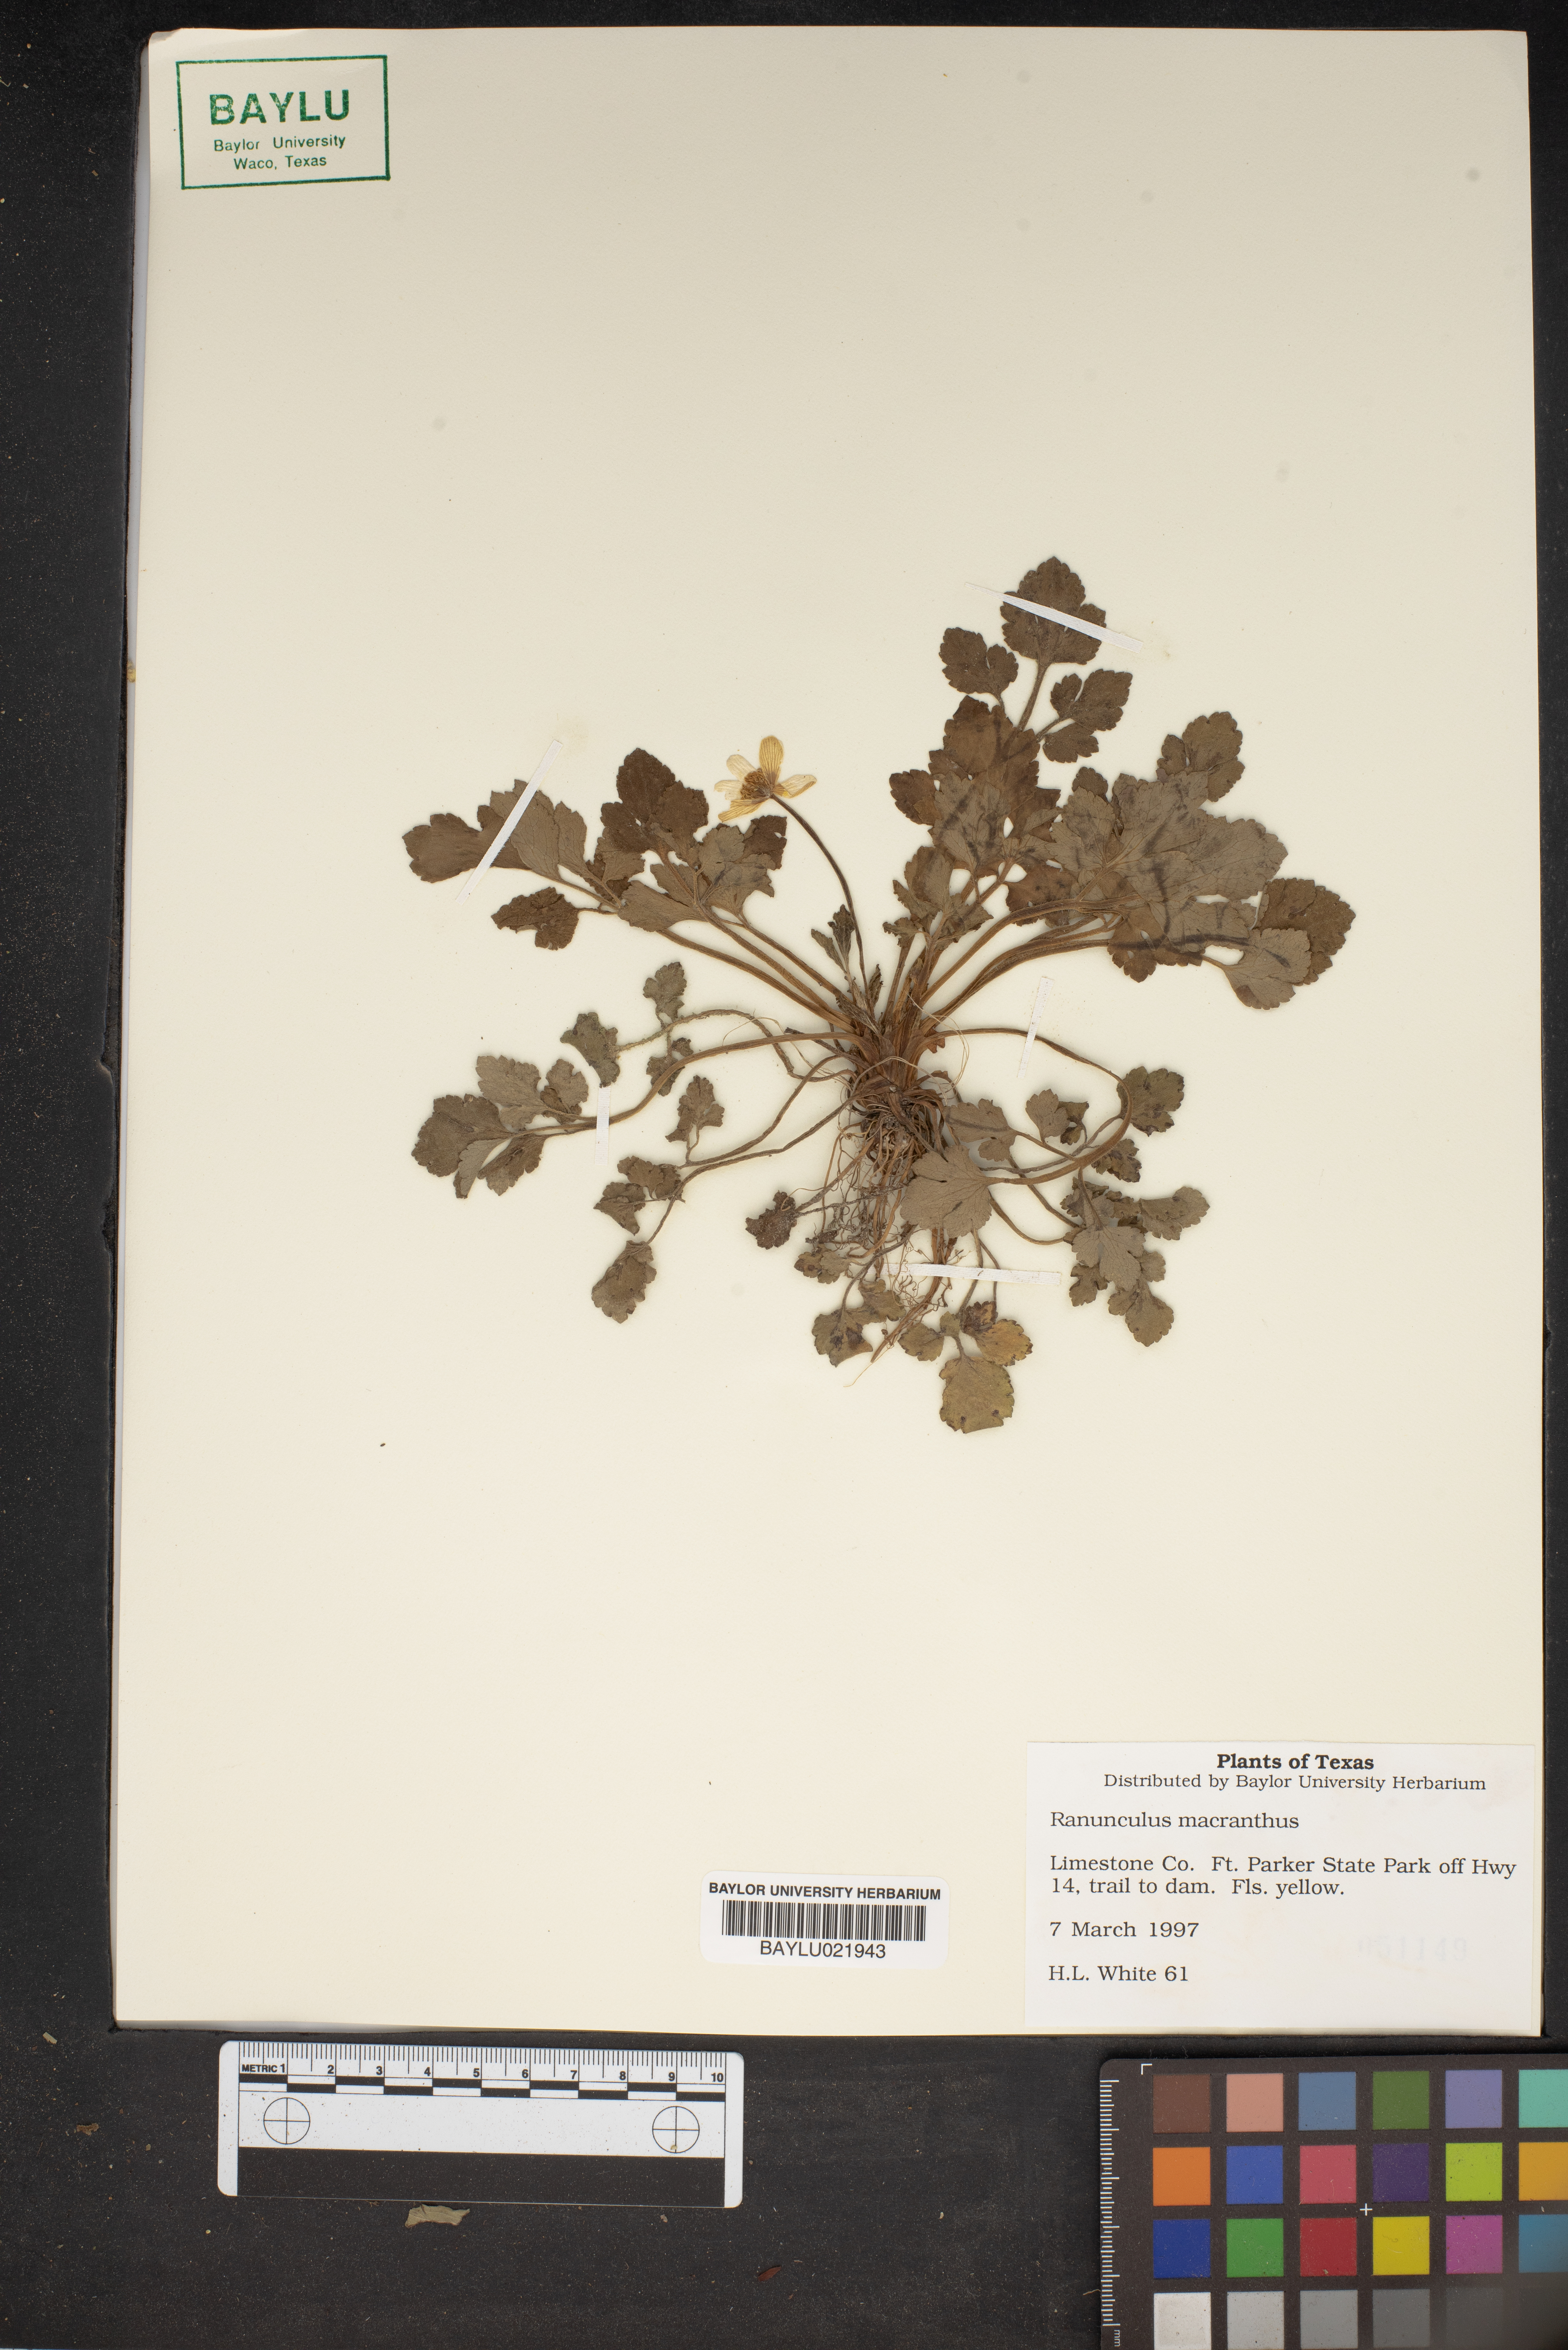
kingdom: Plantae
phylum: Tracheophyta
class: Magnoliopsida
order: Ranunculales
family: Ranunculaceae
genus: Ranunculus
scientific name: Ranunculus macranthus
